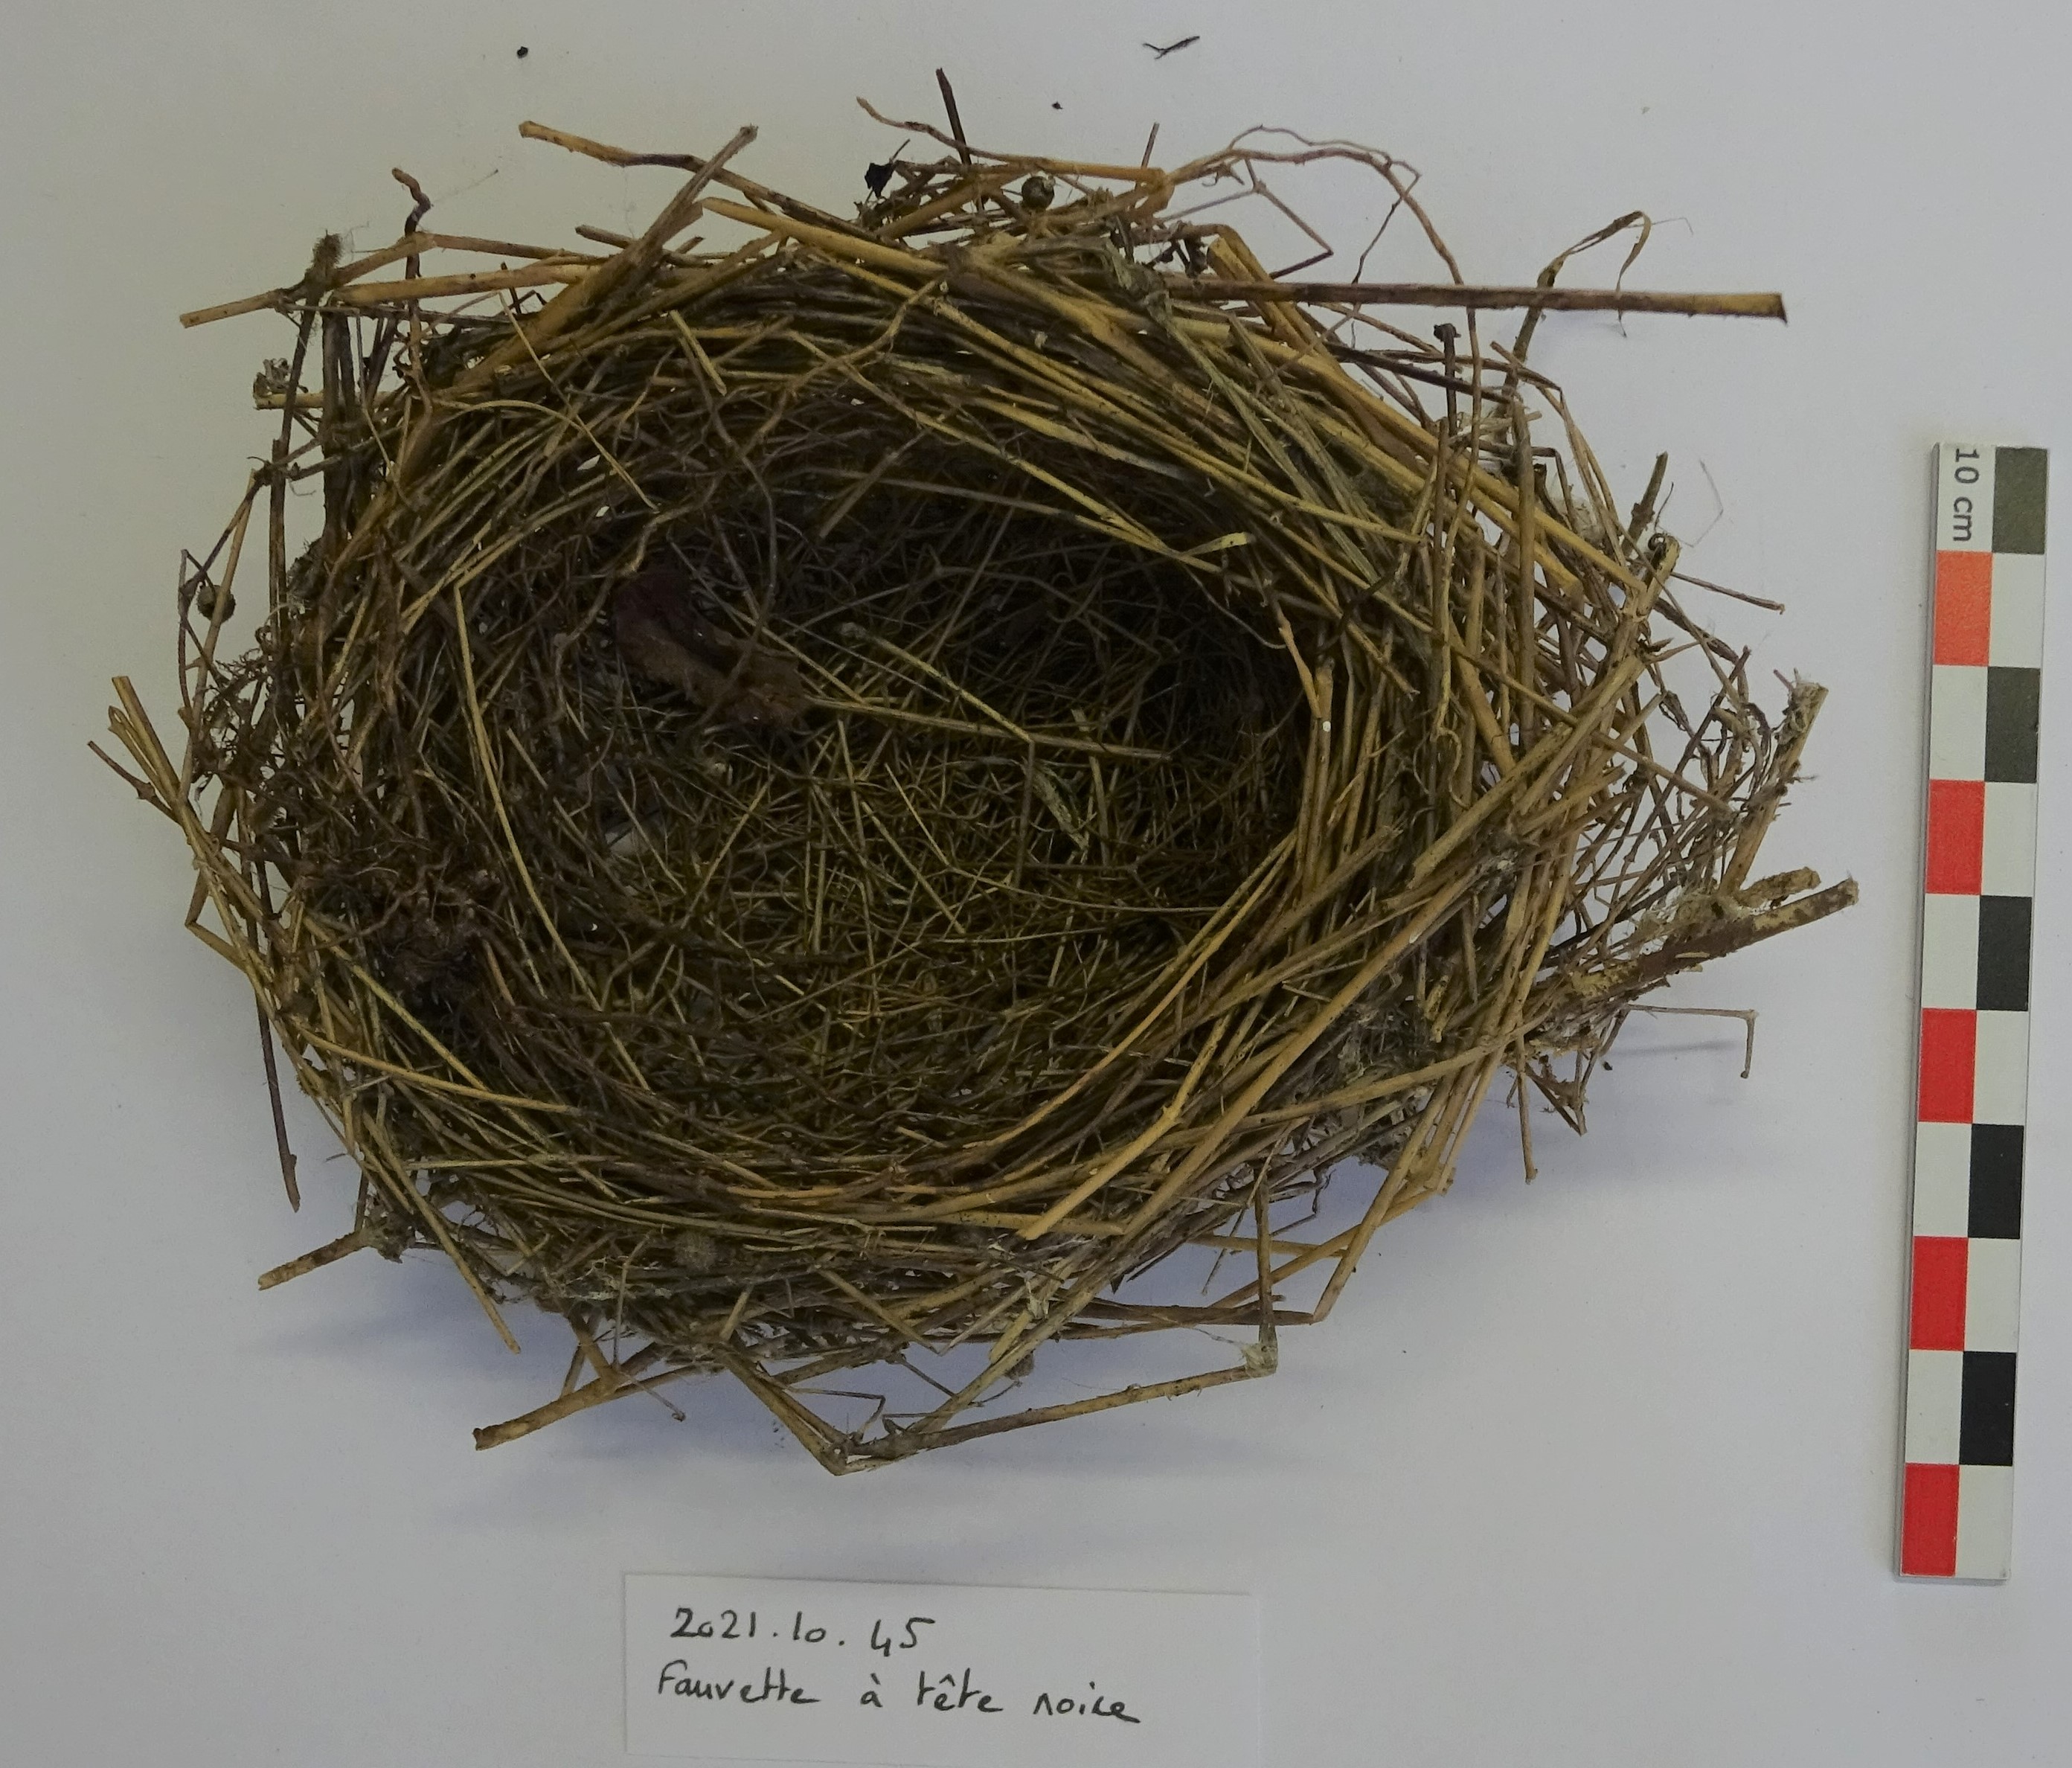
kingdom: Animalia
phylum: Chordata
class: Aves
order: Passeriformes
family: Sylviidae
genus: Sylvia
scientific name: Sylvia atricapilla
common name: Eurasian blackcap
